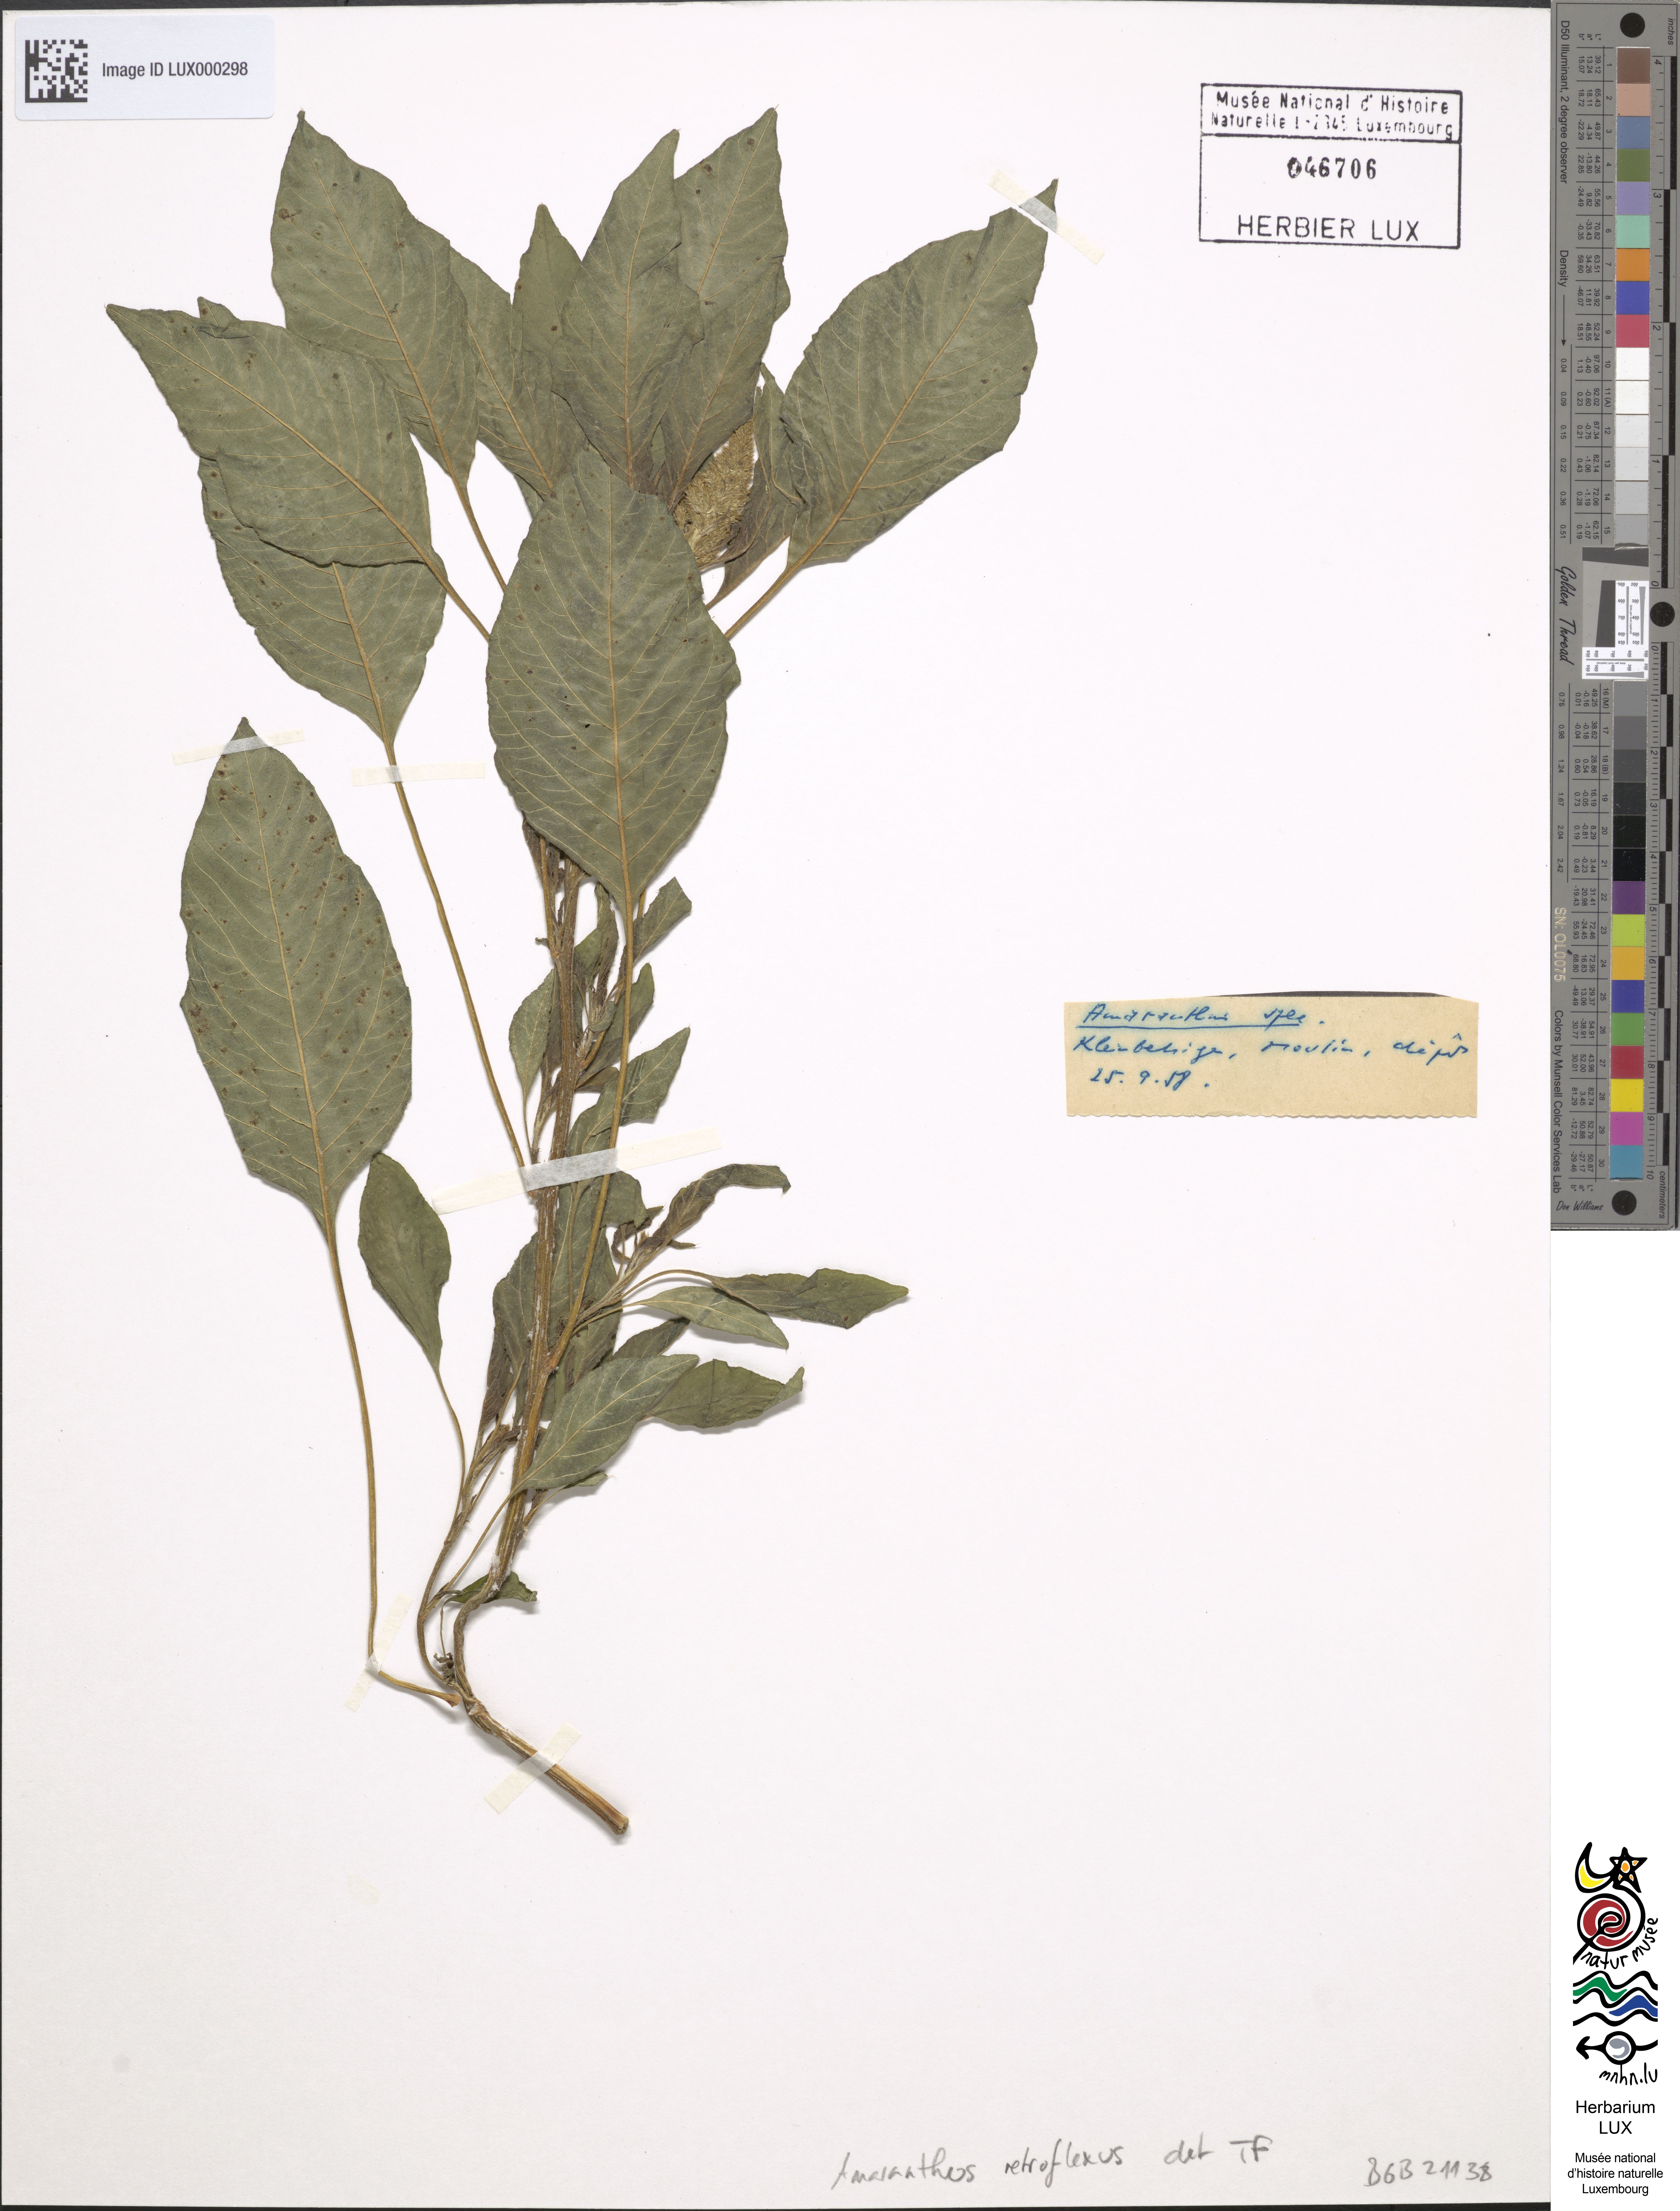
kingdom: Plantae
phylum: Tracheophyta
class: Magnoliopsida
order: Caryophyllales
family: Amaranthaceae
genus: Amaranthus
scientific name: Amaranthus retroflexus
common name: Redroot amaranth
